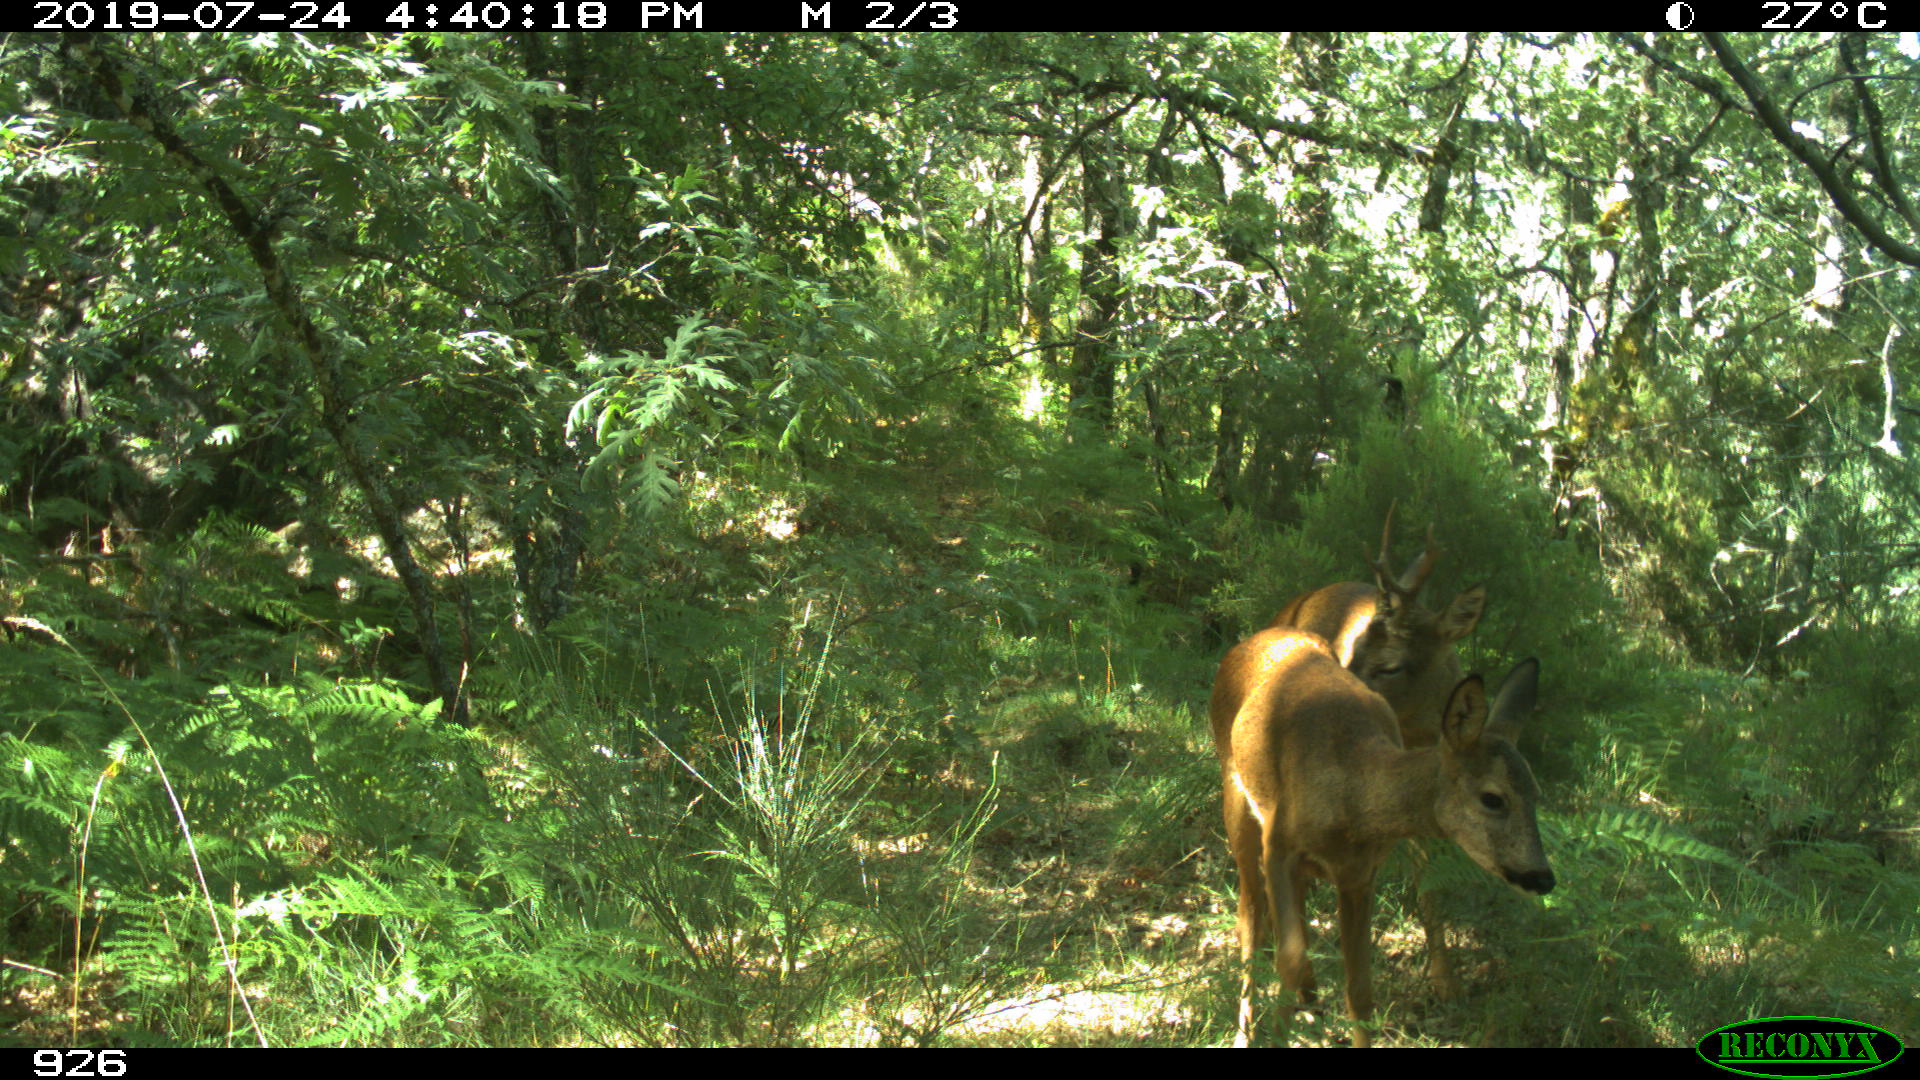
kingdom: Animalia
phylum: Chordata
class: Mammalia
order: Artiodactyla
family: Cervidae
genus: Capreolus
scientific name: Capreolus capreolus
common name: Western roe deer
